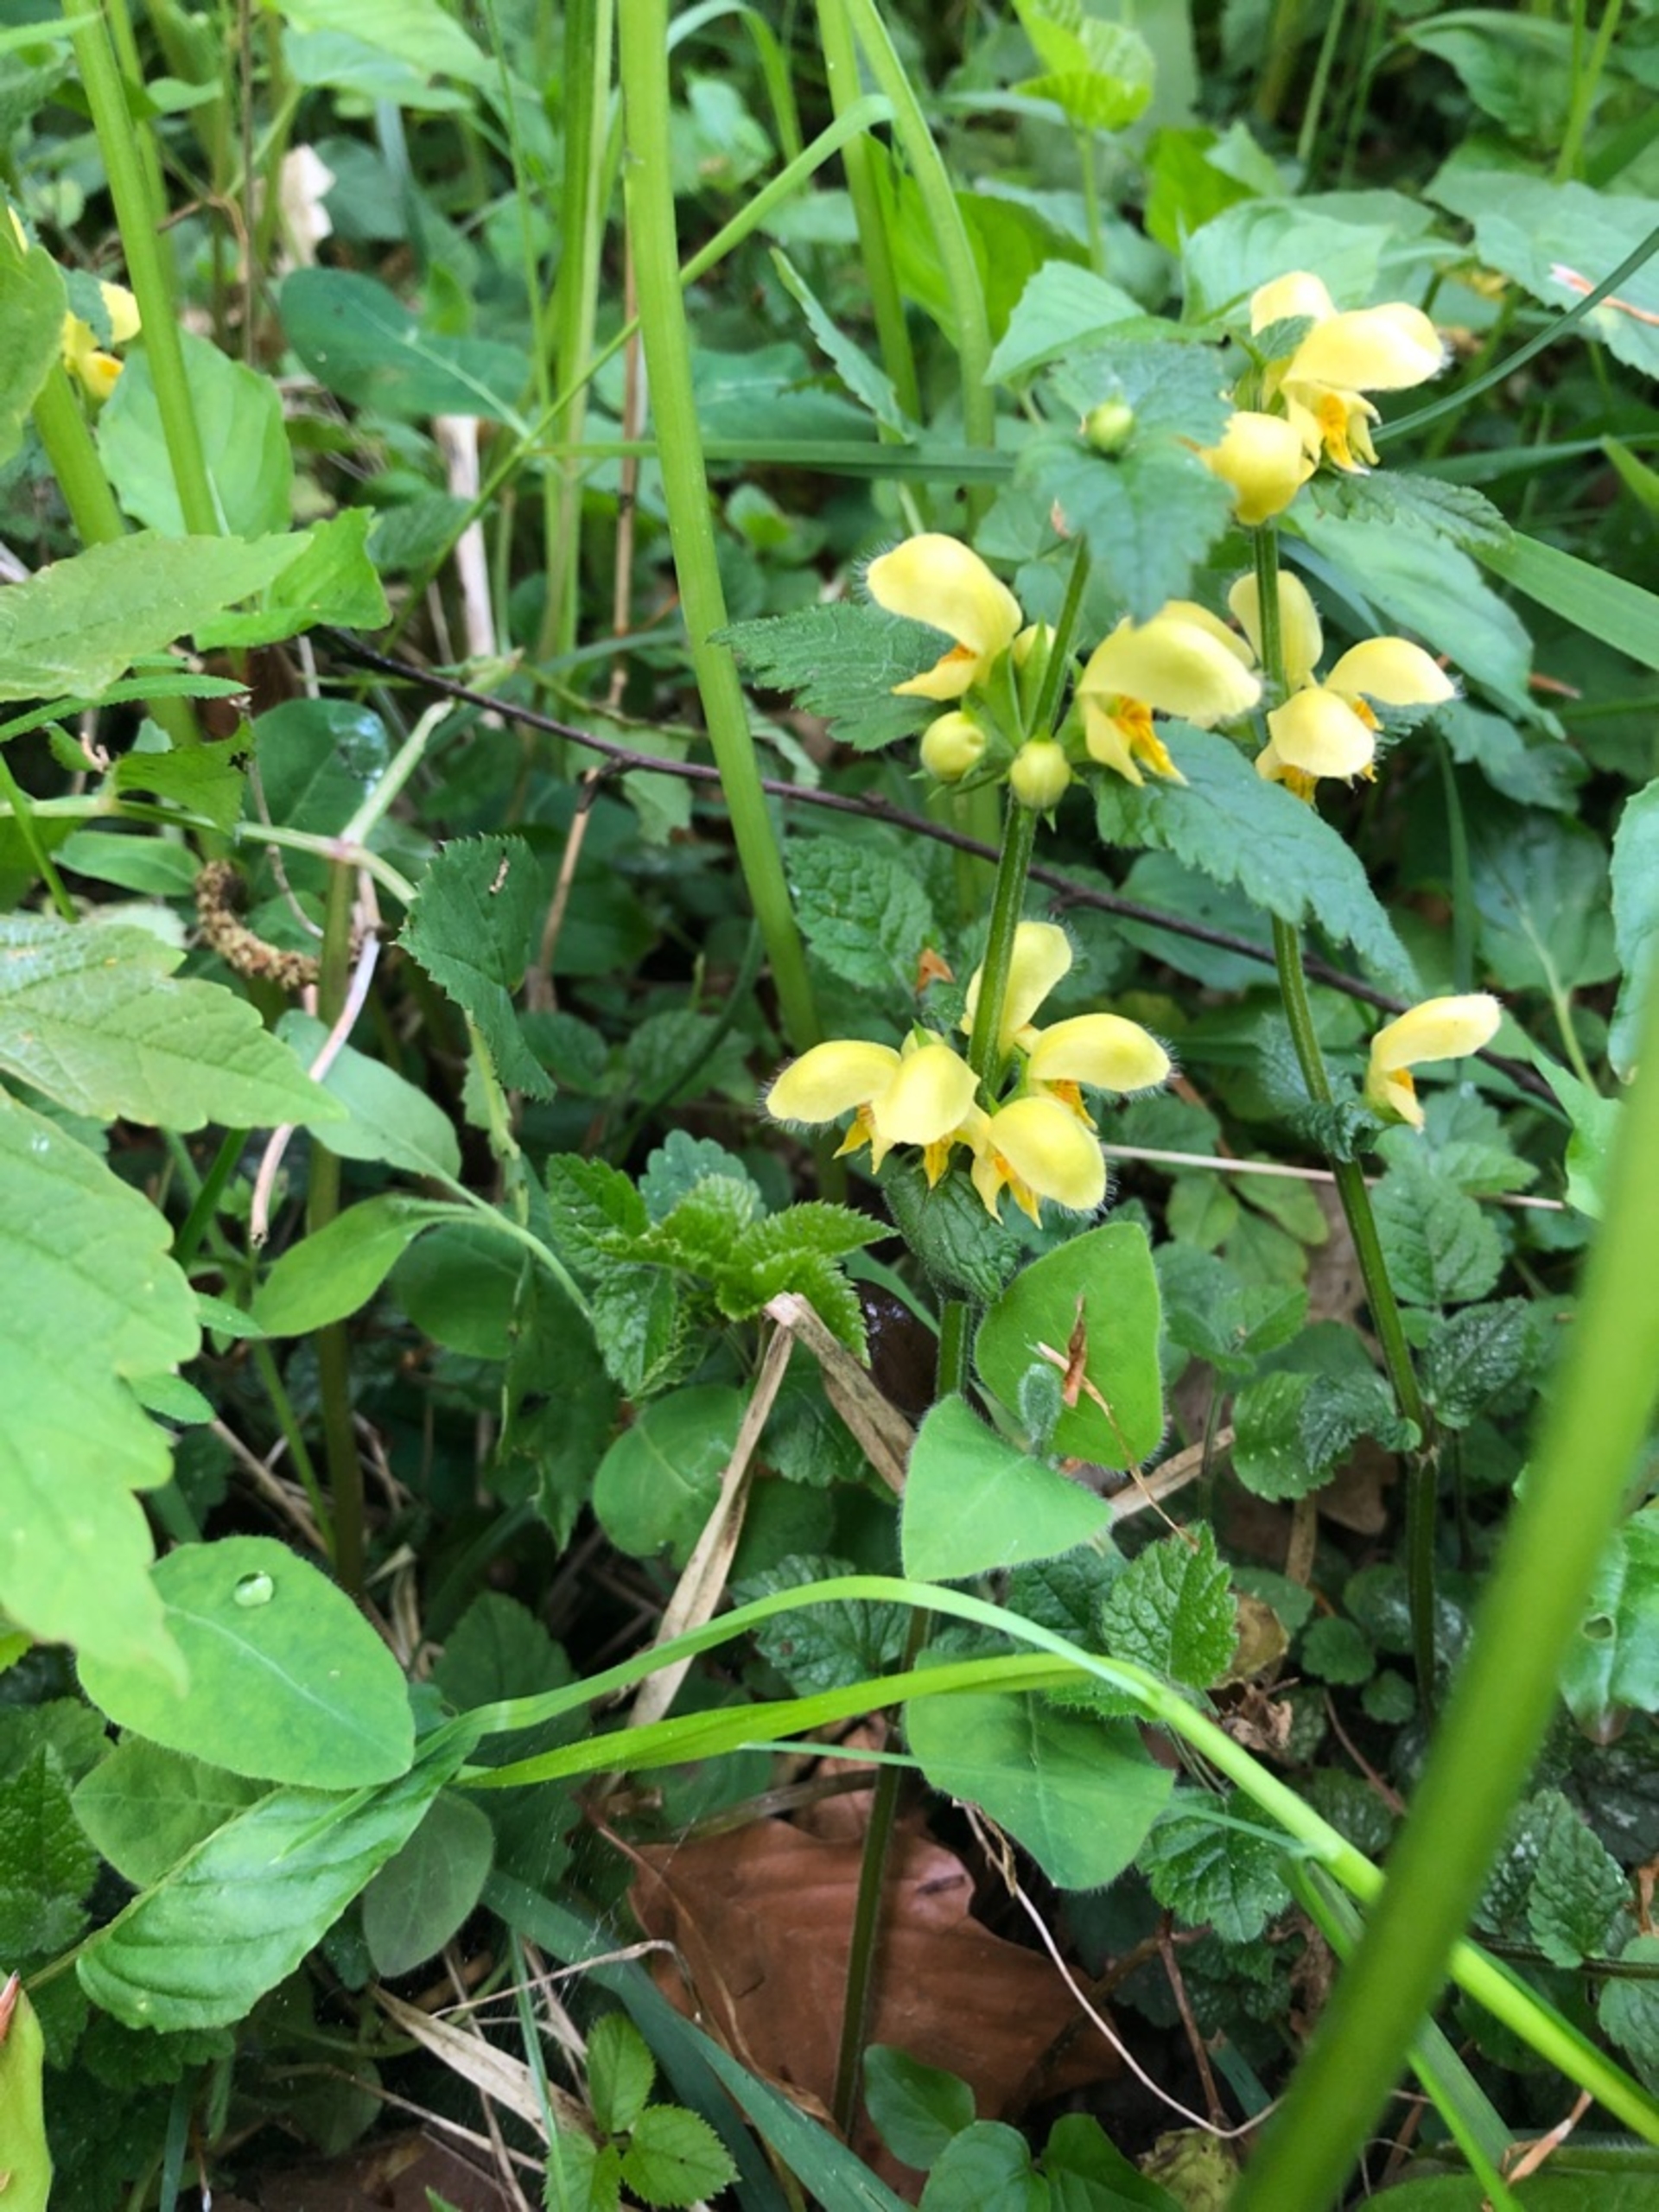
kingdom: Plantae
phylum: Tracheophyta
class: Magnoliopsida
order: Lamiales
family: Lamiaceae
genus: Lamium
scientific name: Lamium galeobdolon
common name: Guldnælde
